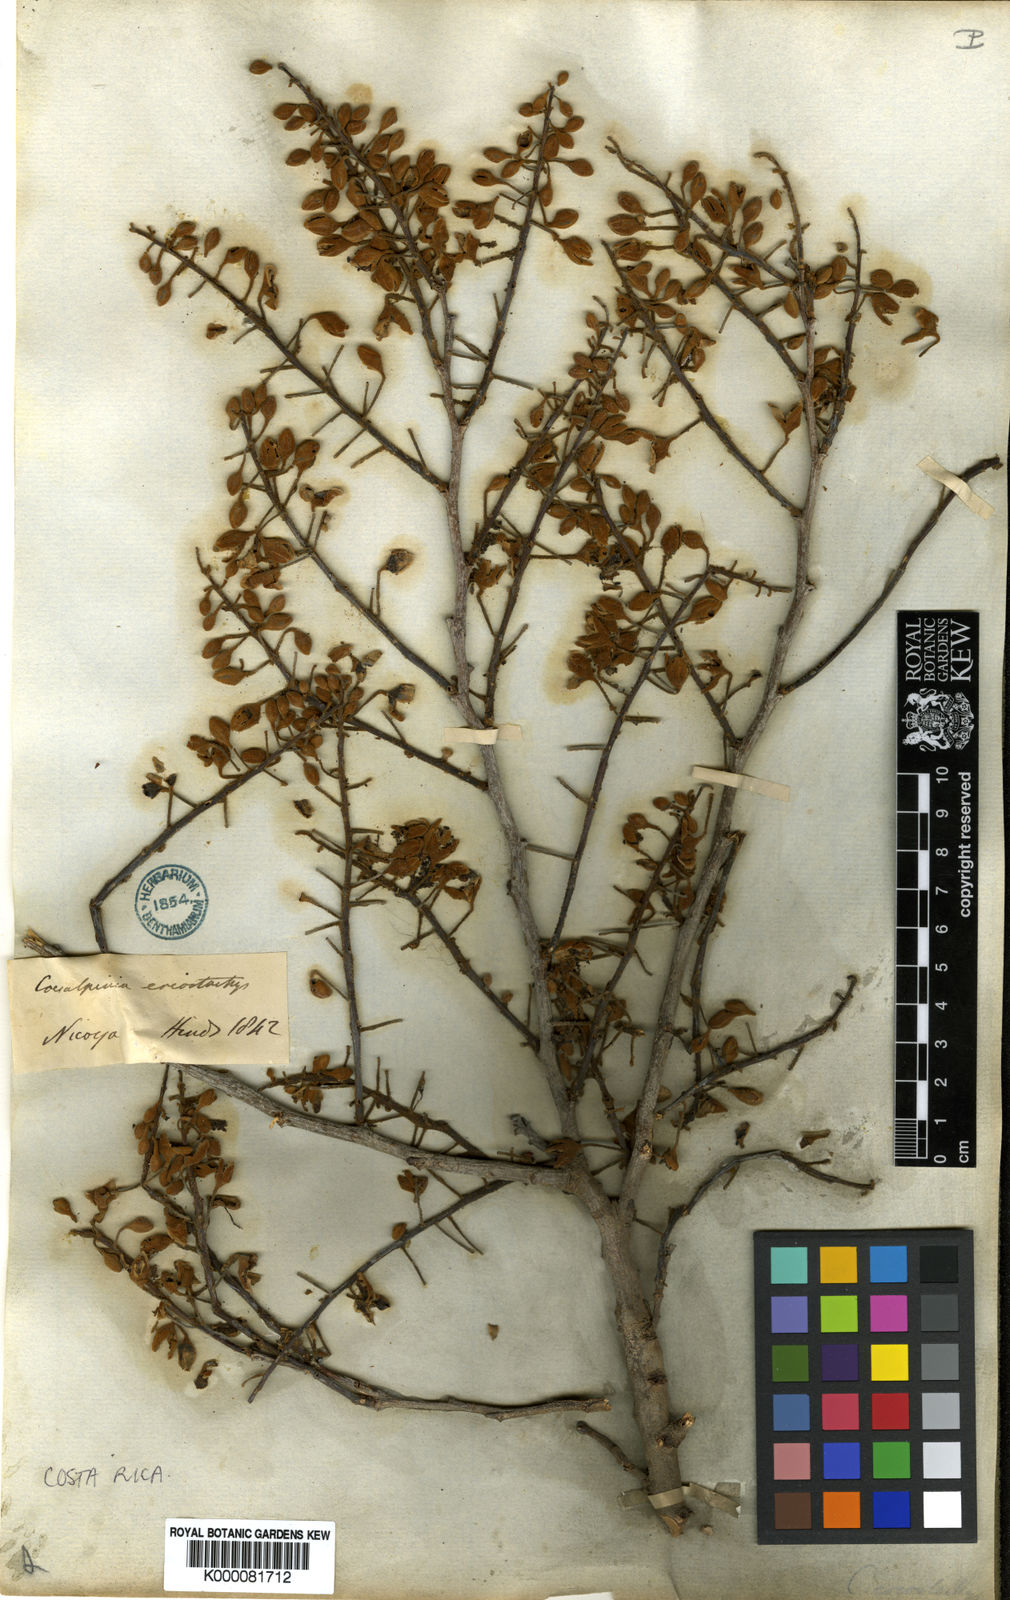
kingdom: Plantae
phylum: Tracheophyta
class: Magnoliopsida
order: Fabales
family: Fabaceae
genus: Cenostigma
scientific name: Cenostigma eriostachys
